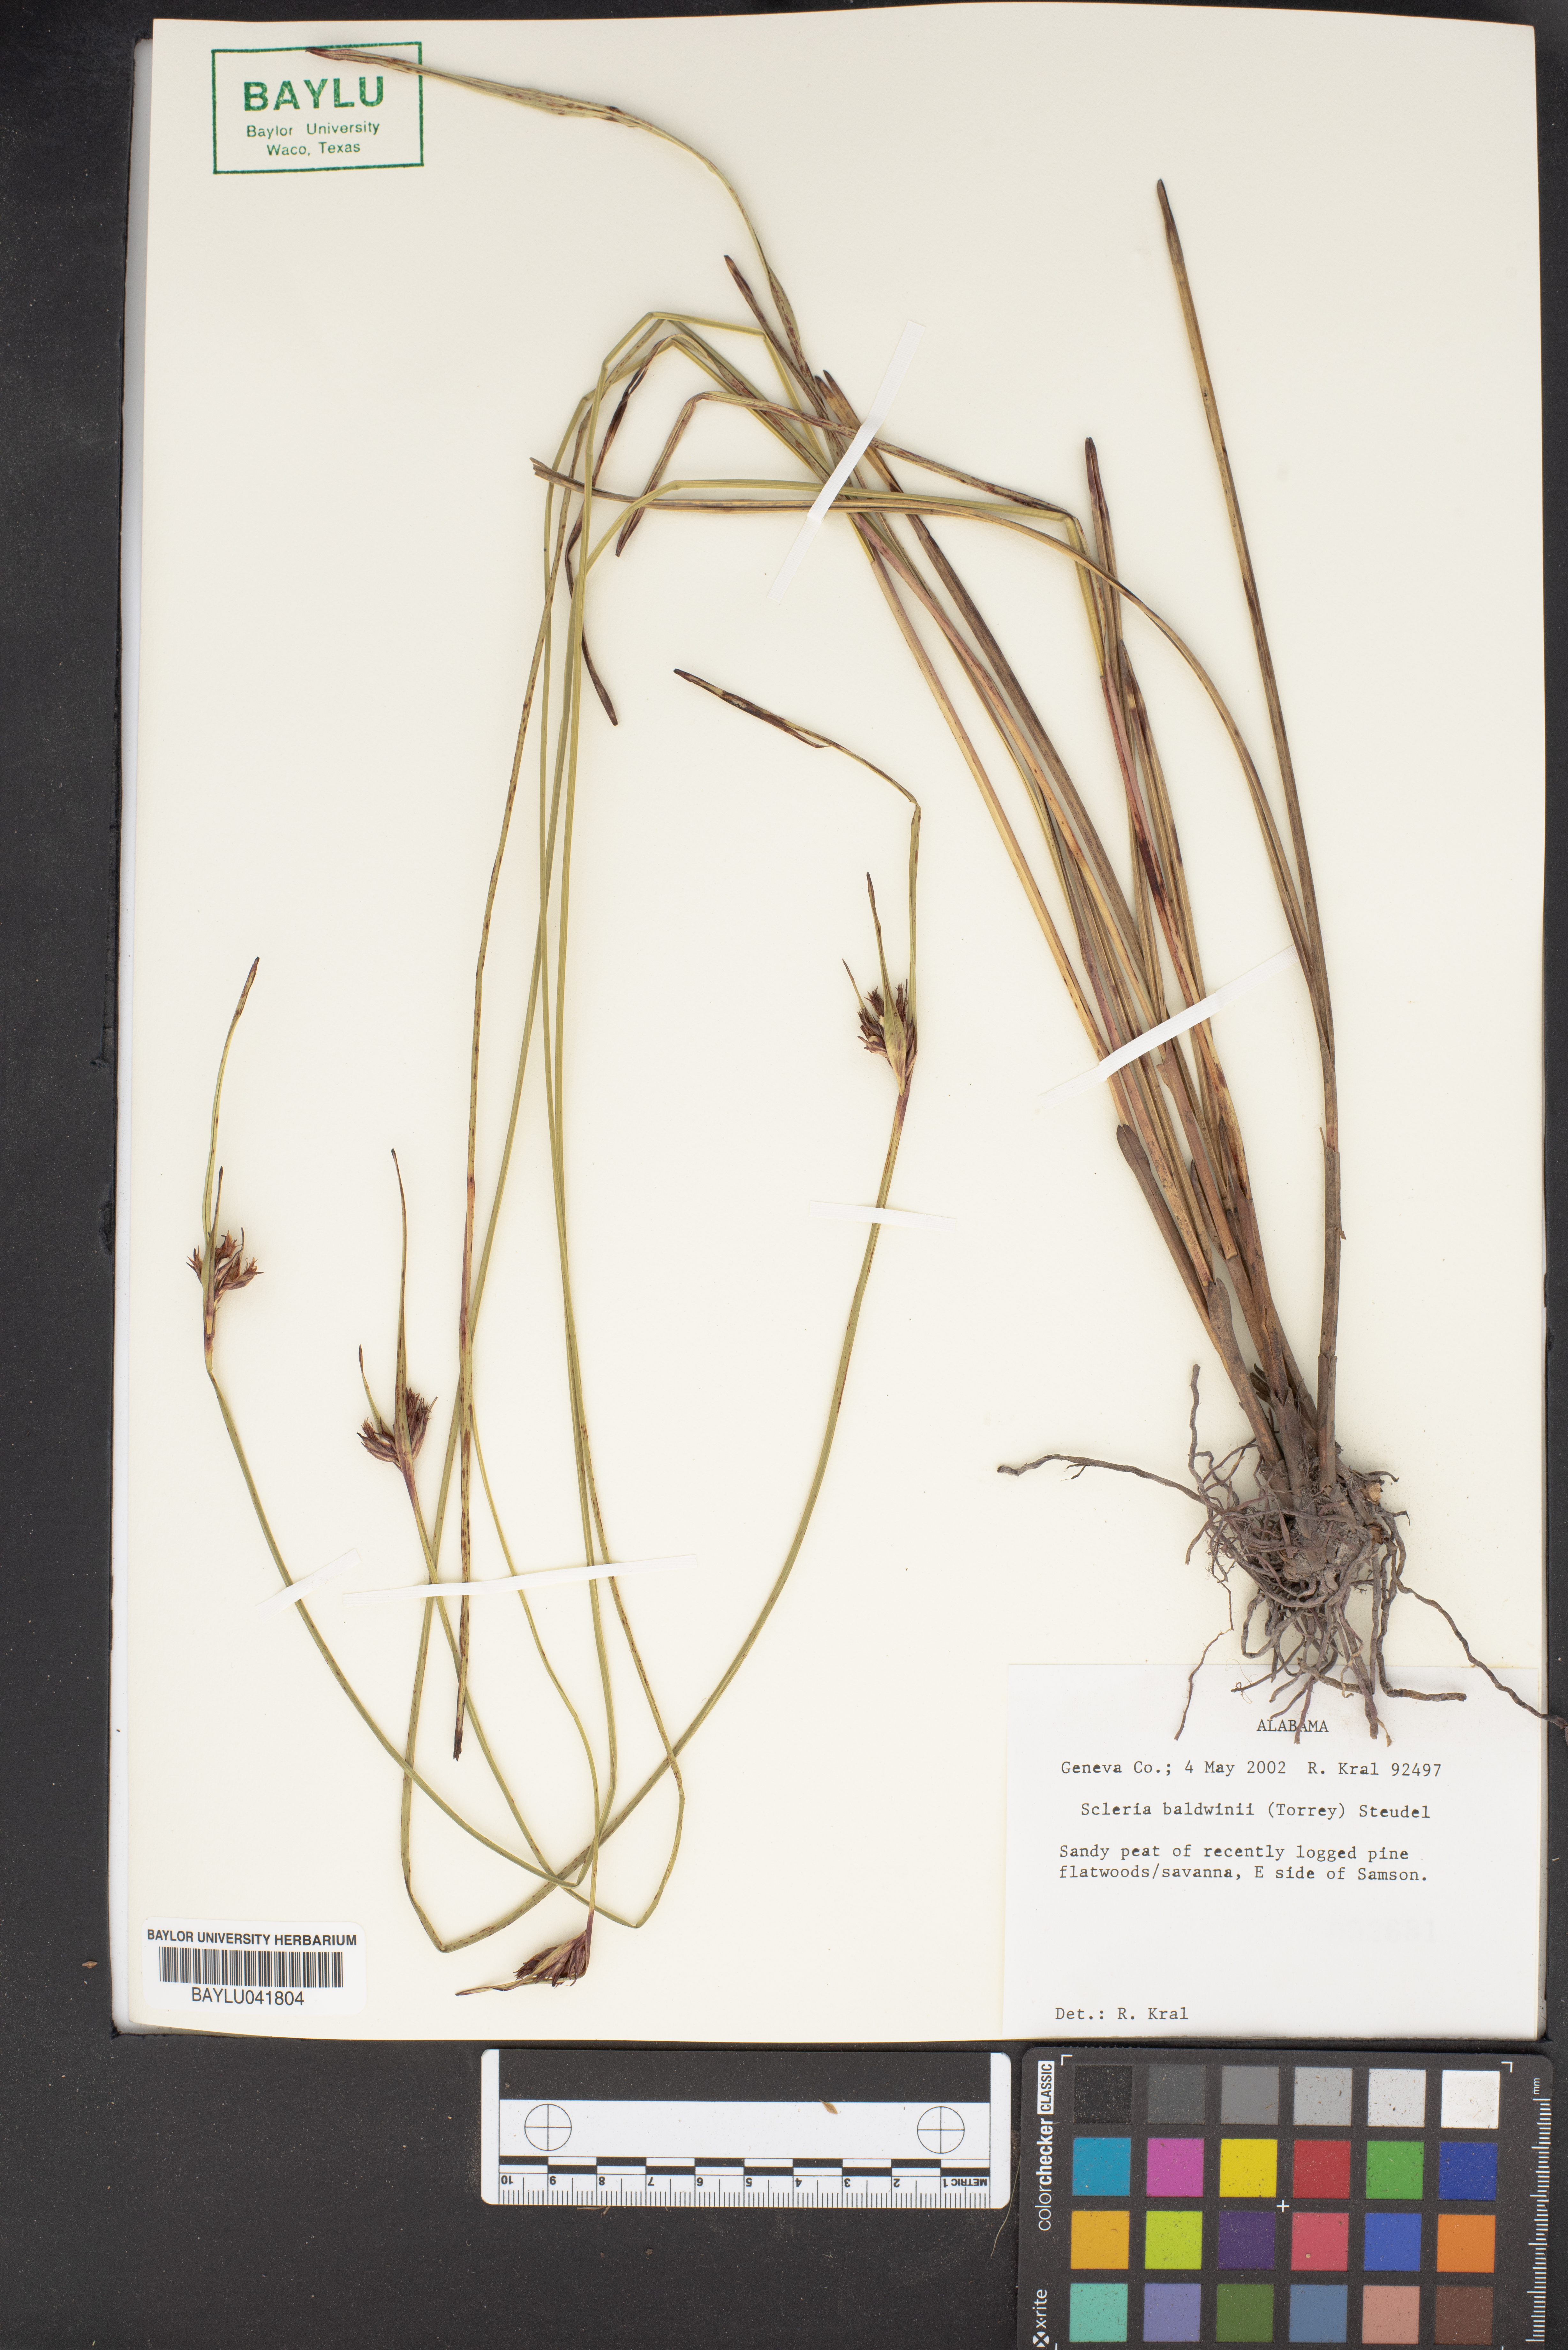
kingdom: Plantae
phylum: Tracheophyta
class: Liliopsida
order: Poales
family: Cyperaceae
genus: Scleria
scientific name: Scleria baldwinii
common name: Baldwin's nutrush
